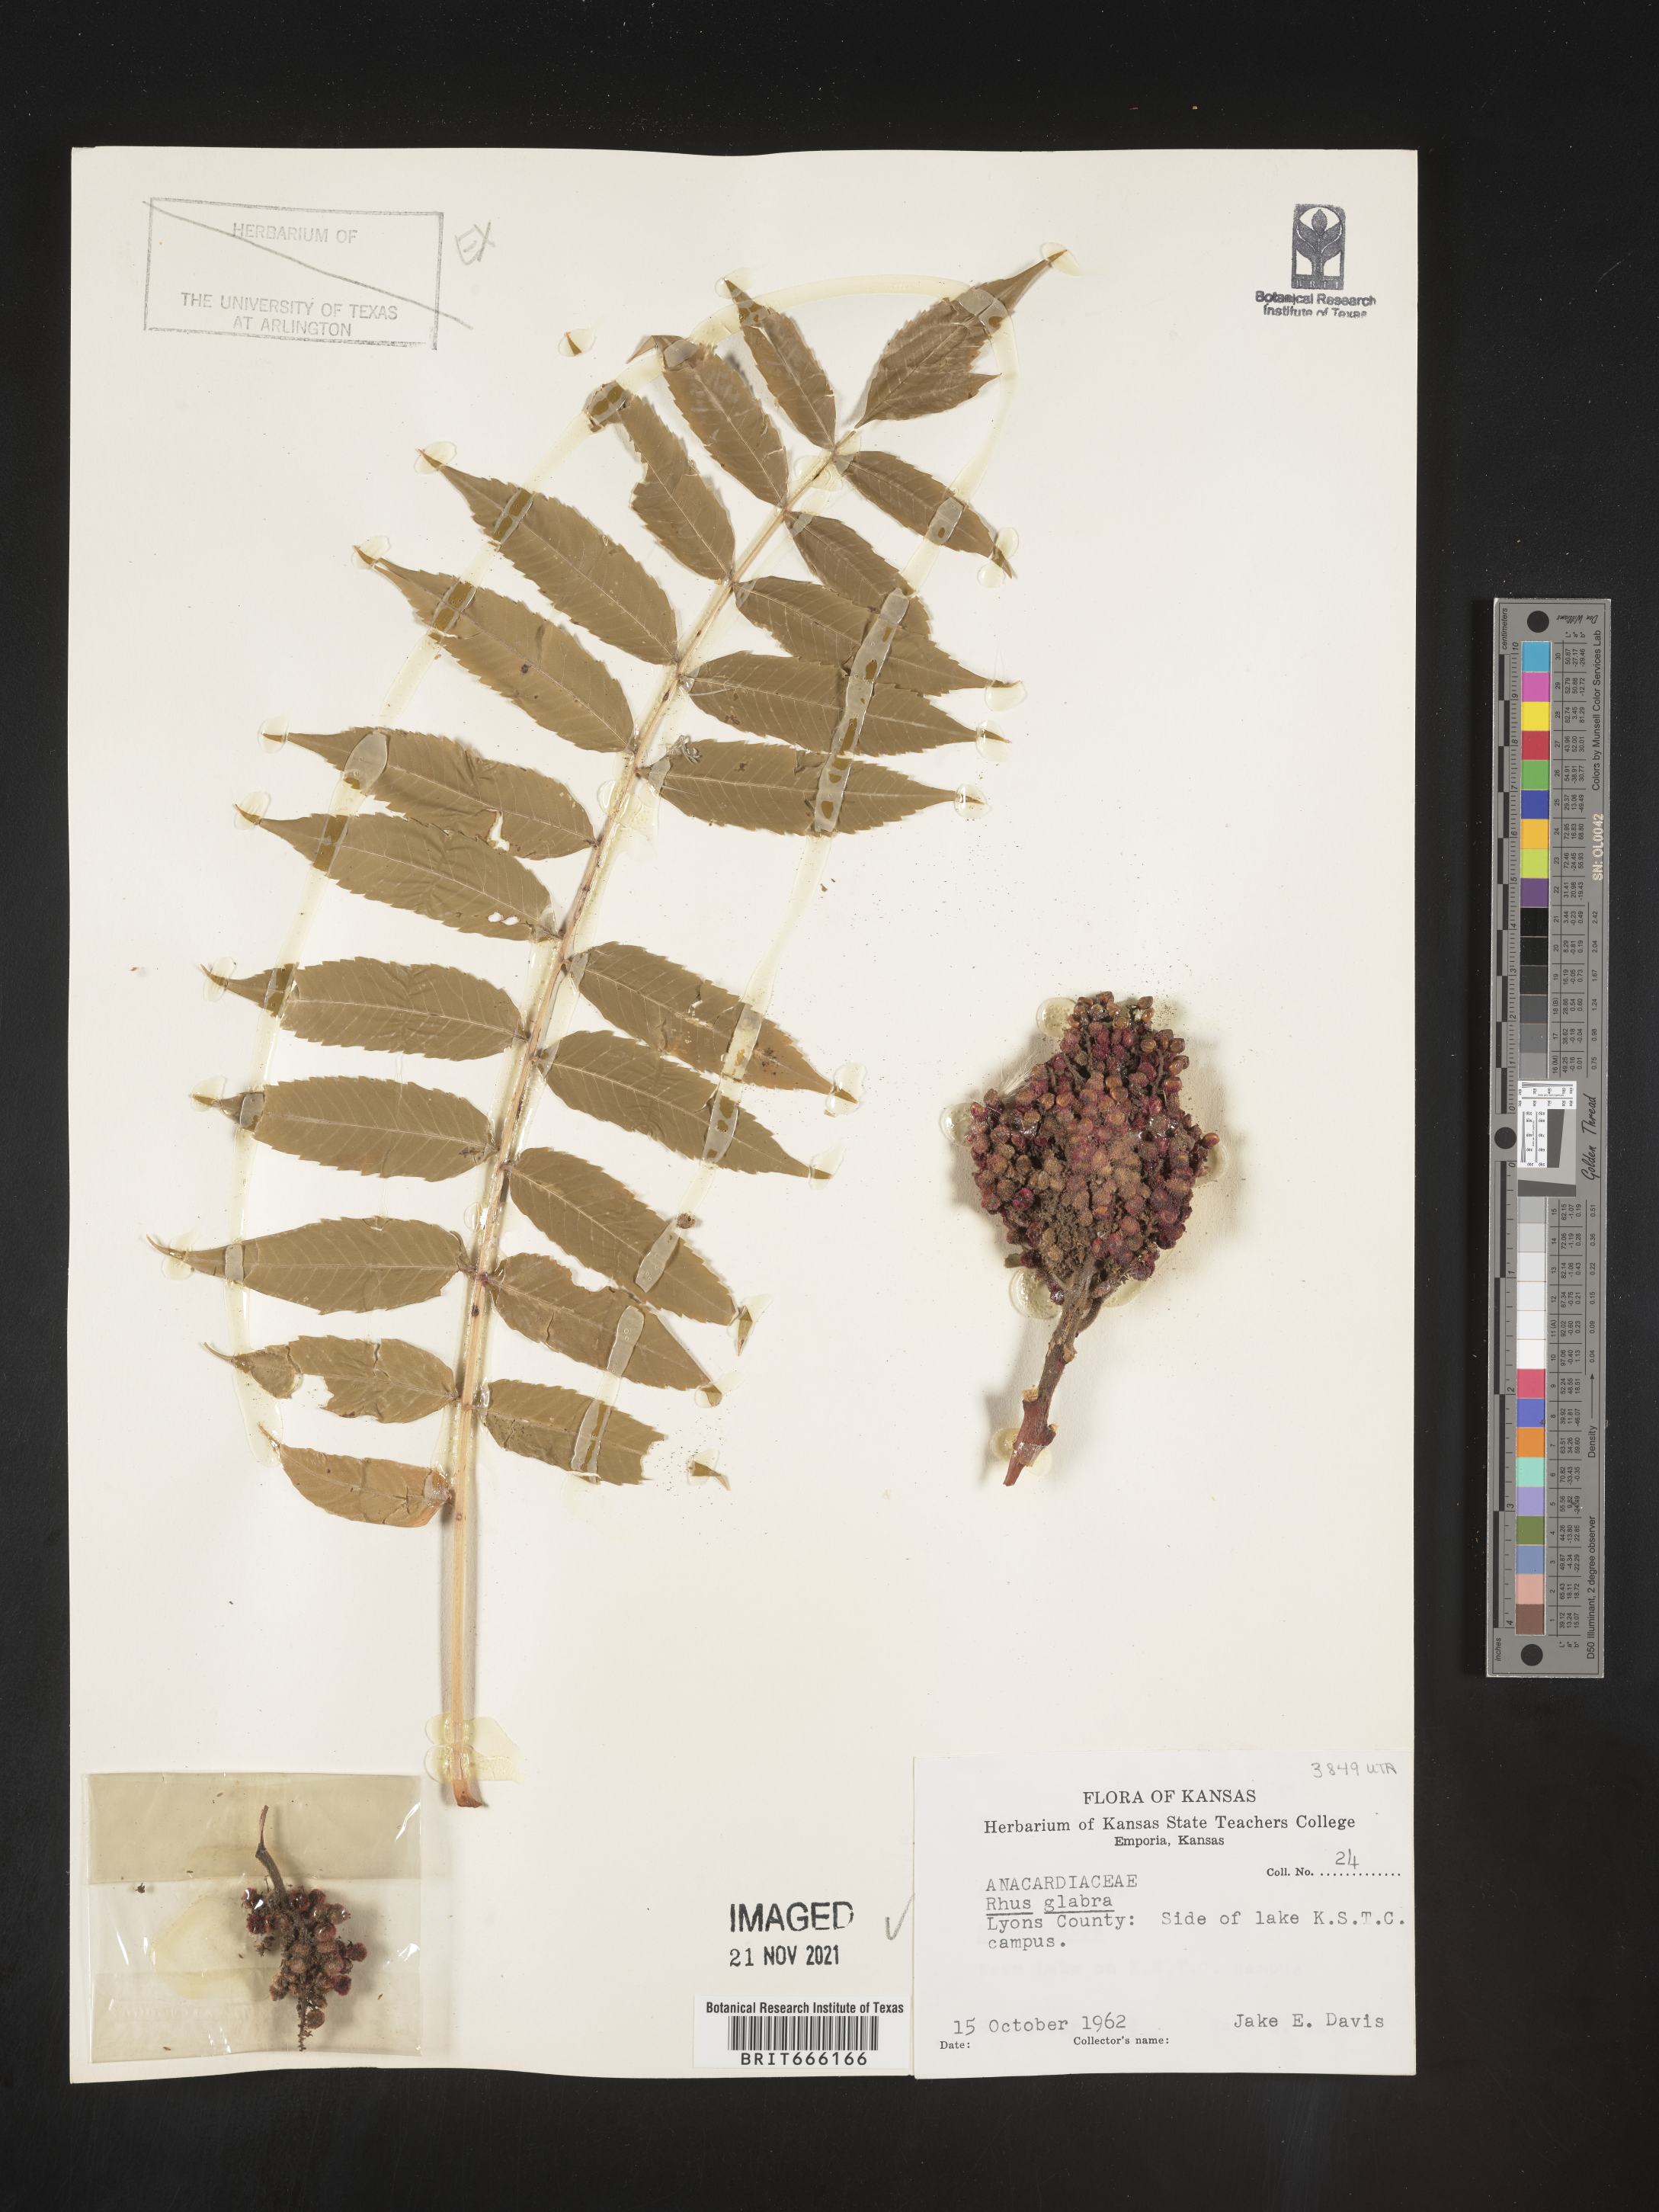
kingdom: Plantae
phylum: Tracheophyta
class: Magnoliopsida
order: Sapindales
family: Anacardiaceae
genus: Rhus
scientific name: Rhus glabra
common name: Scarlet sumac
